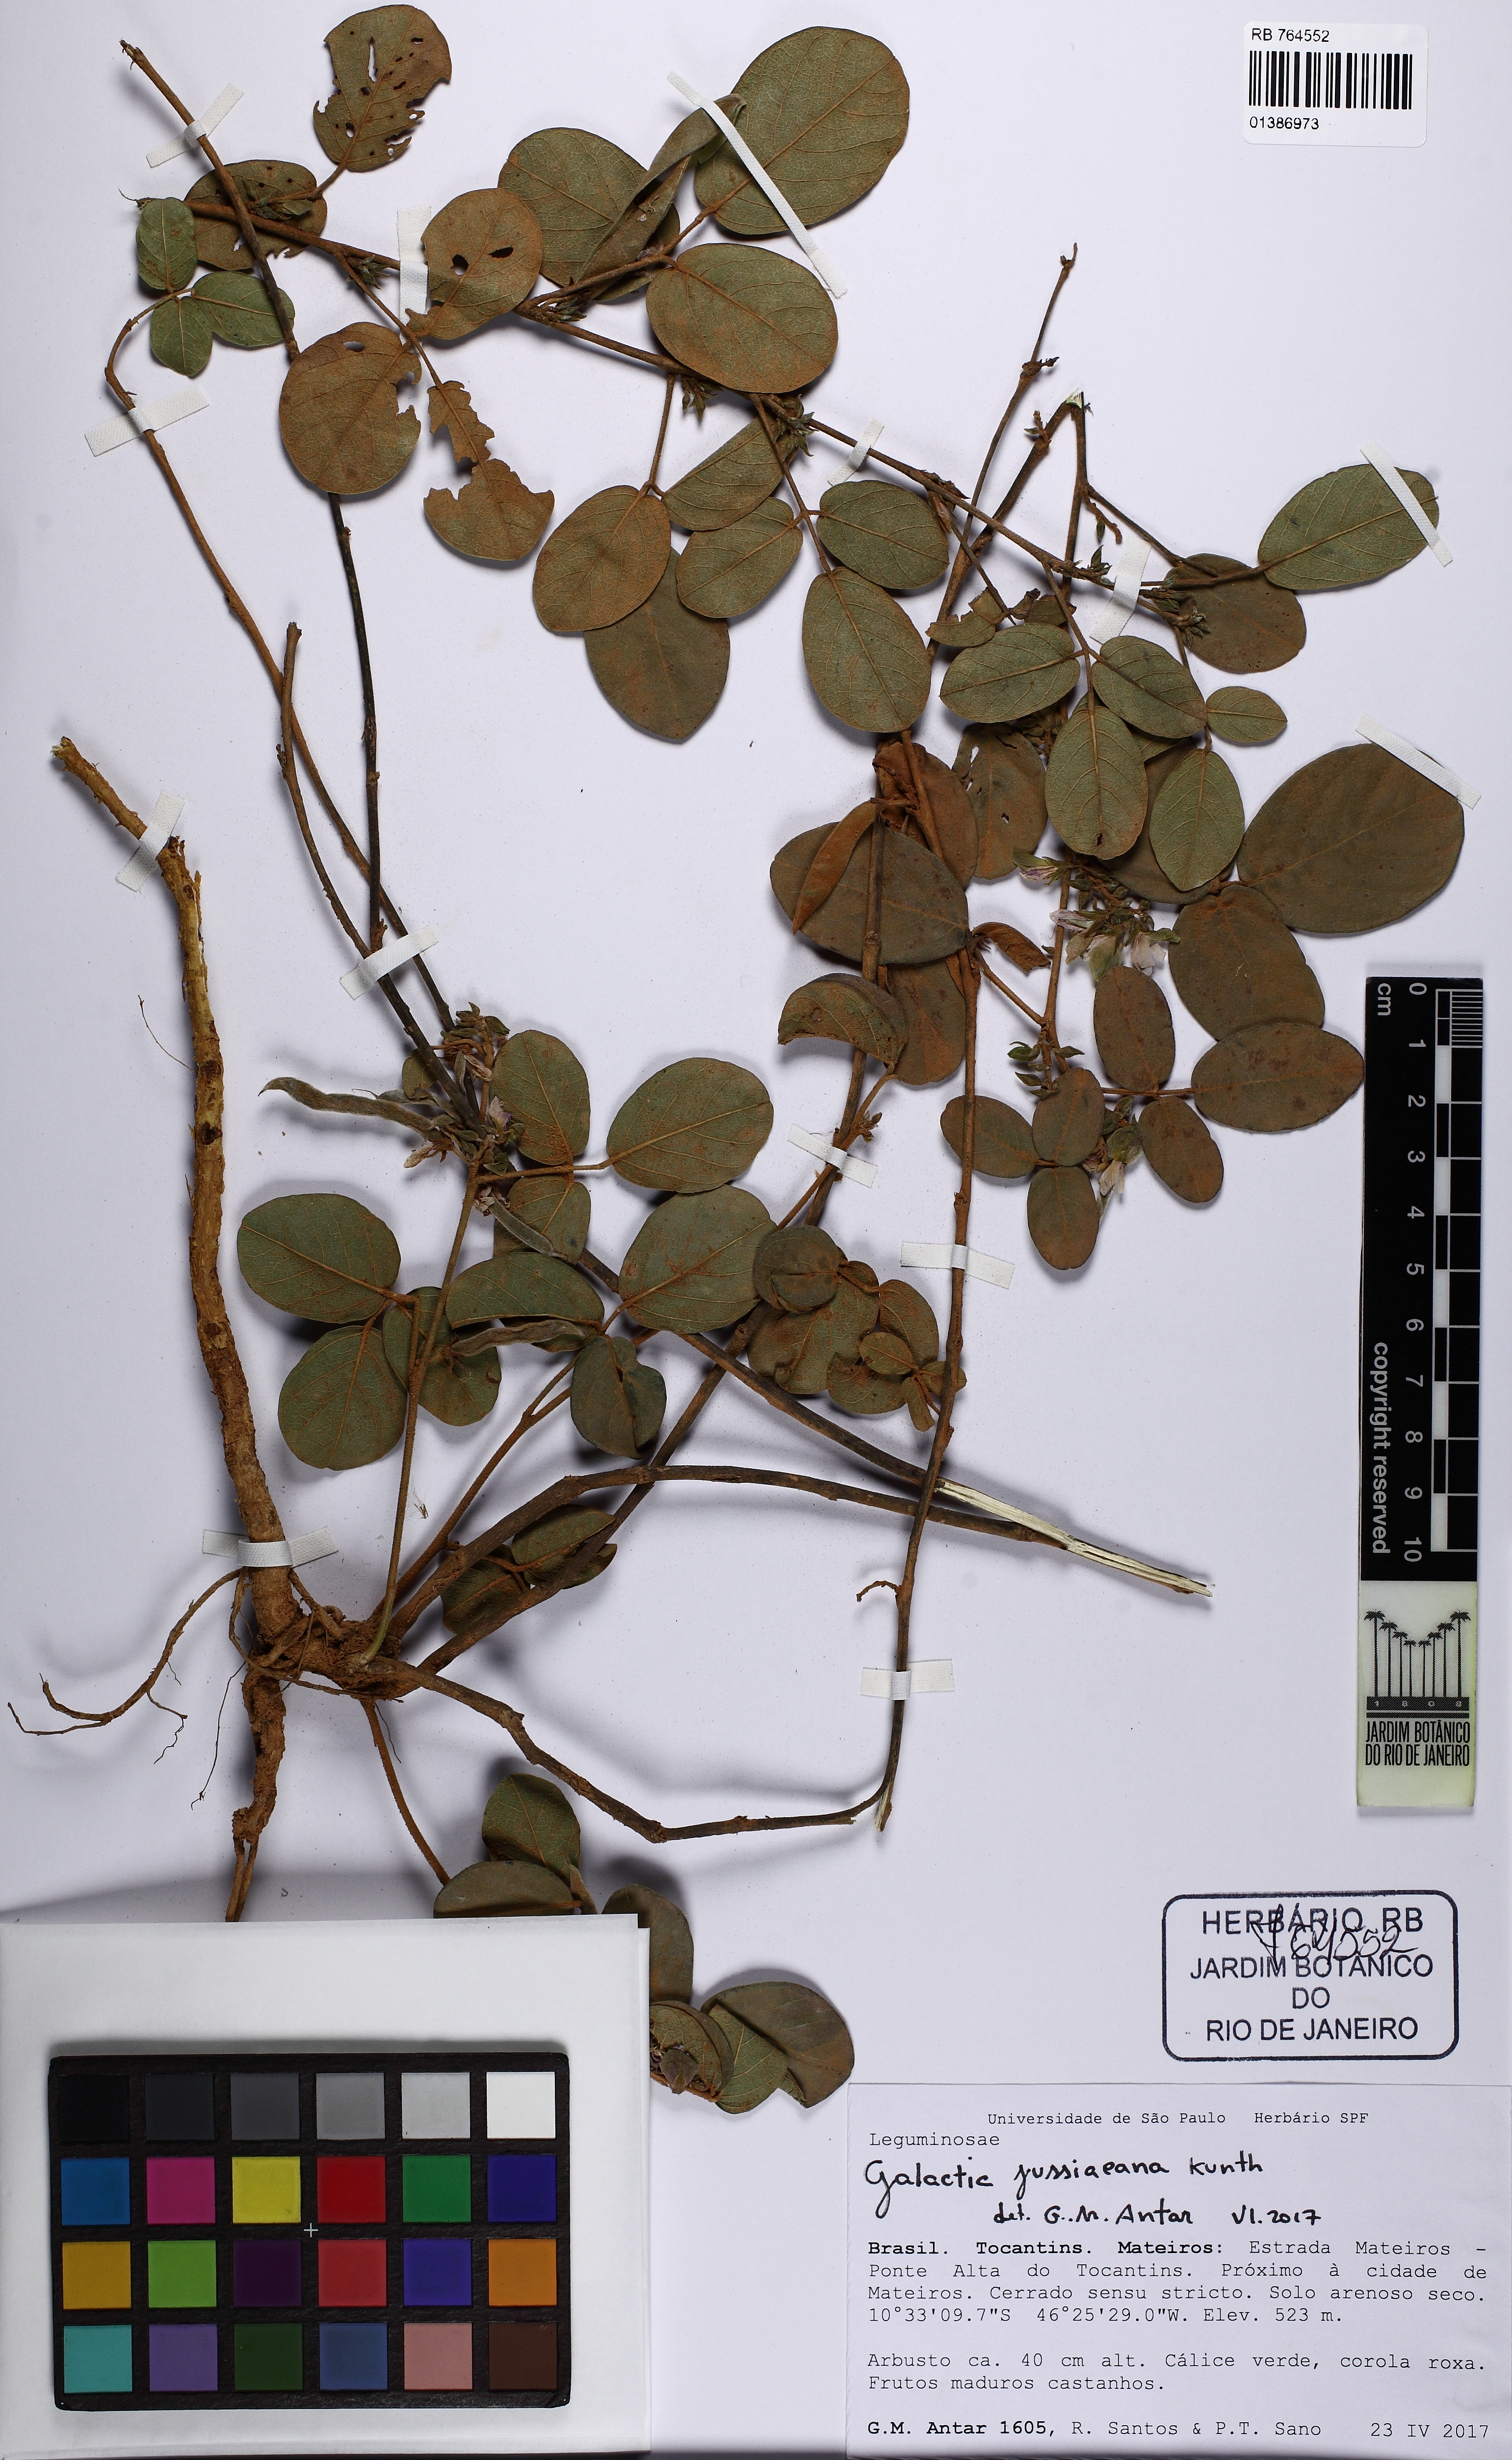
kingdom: Plantae
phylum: Tracheophyta
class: Magnoliopsida
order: Fabales
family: Fabaceae
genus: Galactia
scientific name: Galactia jussiaeana
